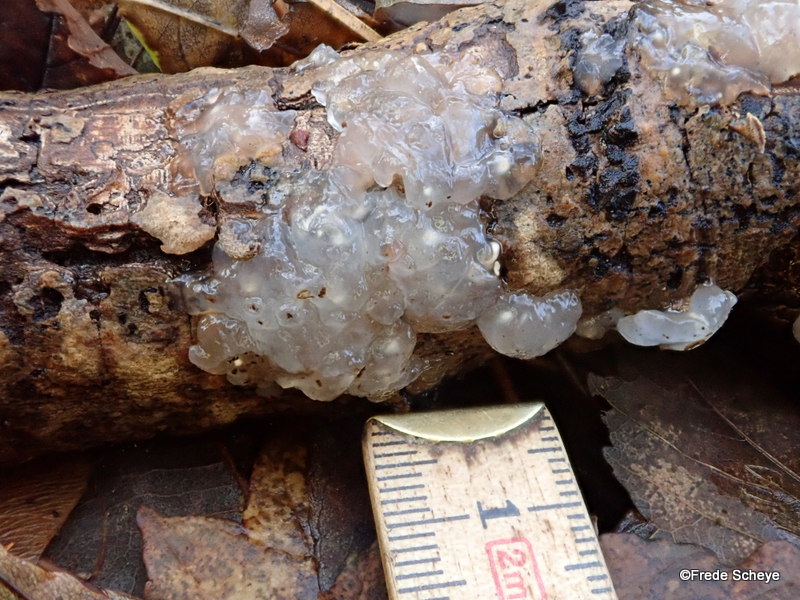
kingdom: Fungi
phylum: Basidiomycota
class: Agaricomycetes
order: Auriculariales
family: Hyaloriaceae
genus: Myxarium
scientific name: Myxarium nucleatum
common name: klar bævretop
